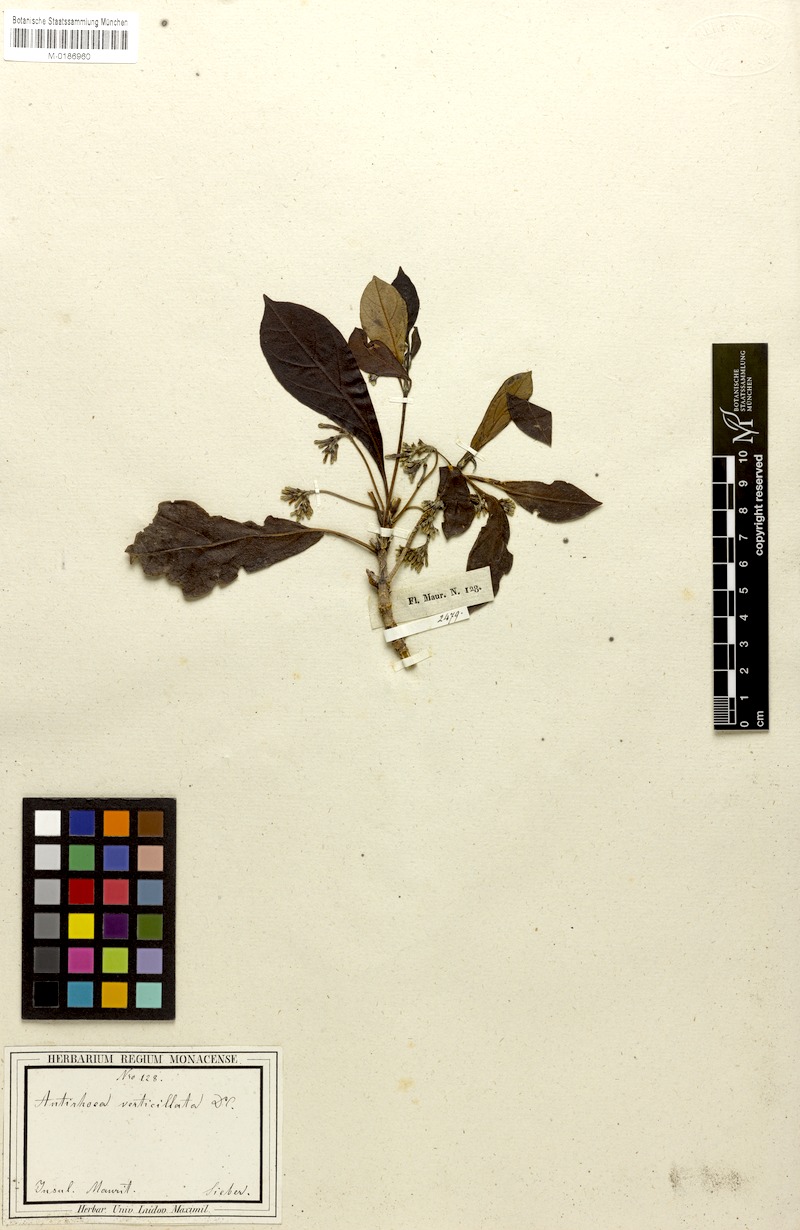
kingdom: Plantae
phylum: Tracheophyta
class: Magnoliopsida
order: Gentianales
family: Rubiaceae
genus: Antirhea
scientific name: Antirhea Antirrhoea verticillata
